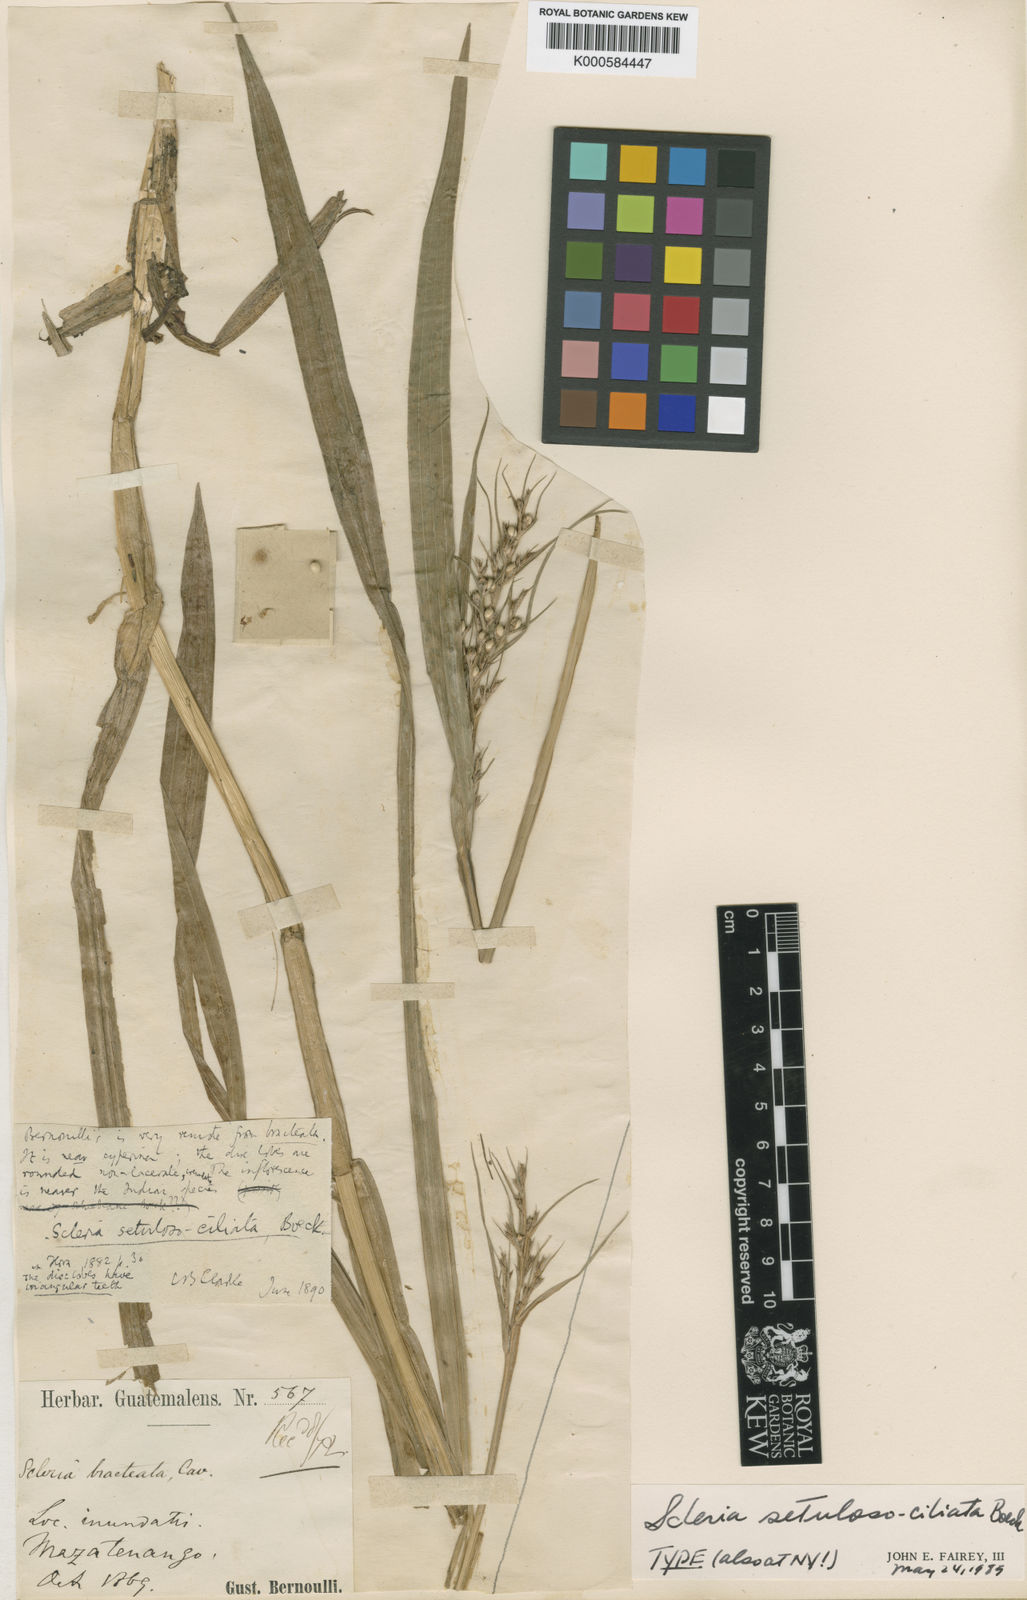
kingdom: Plantae
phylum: Tracheophyta
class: Liliopsida
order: Poales
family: Cyperaceae
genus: Scleria
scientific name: Scleria setulosociliata
